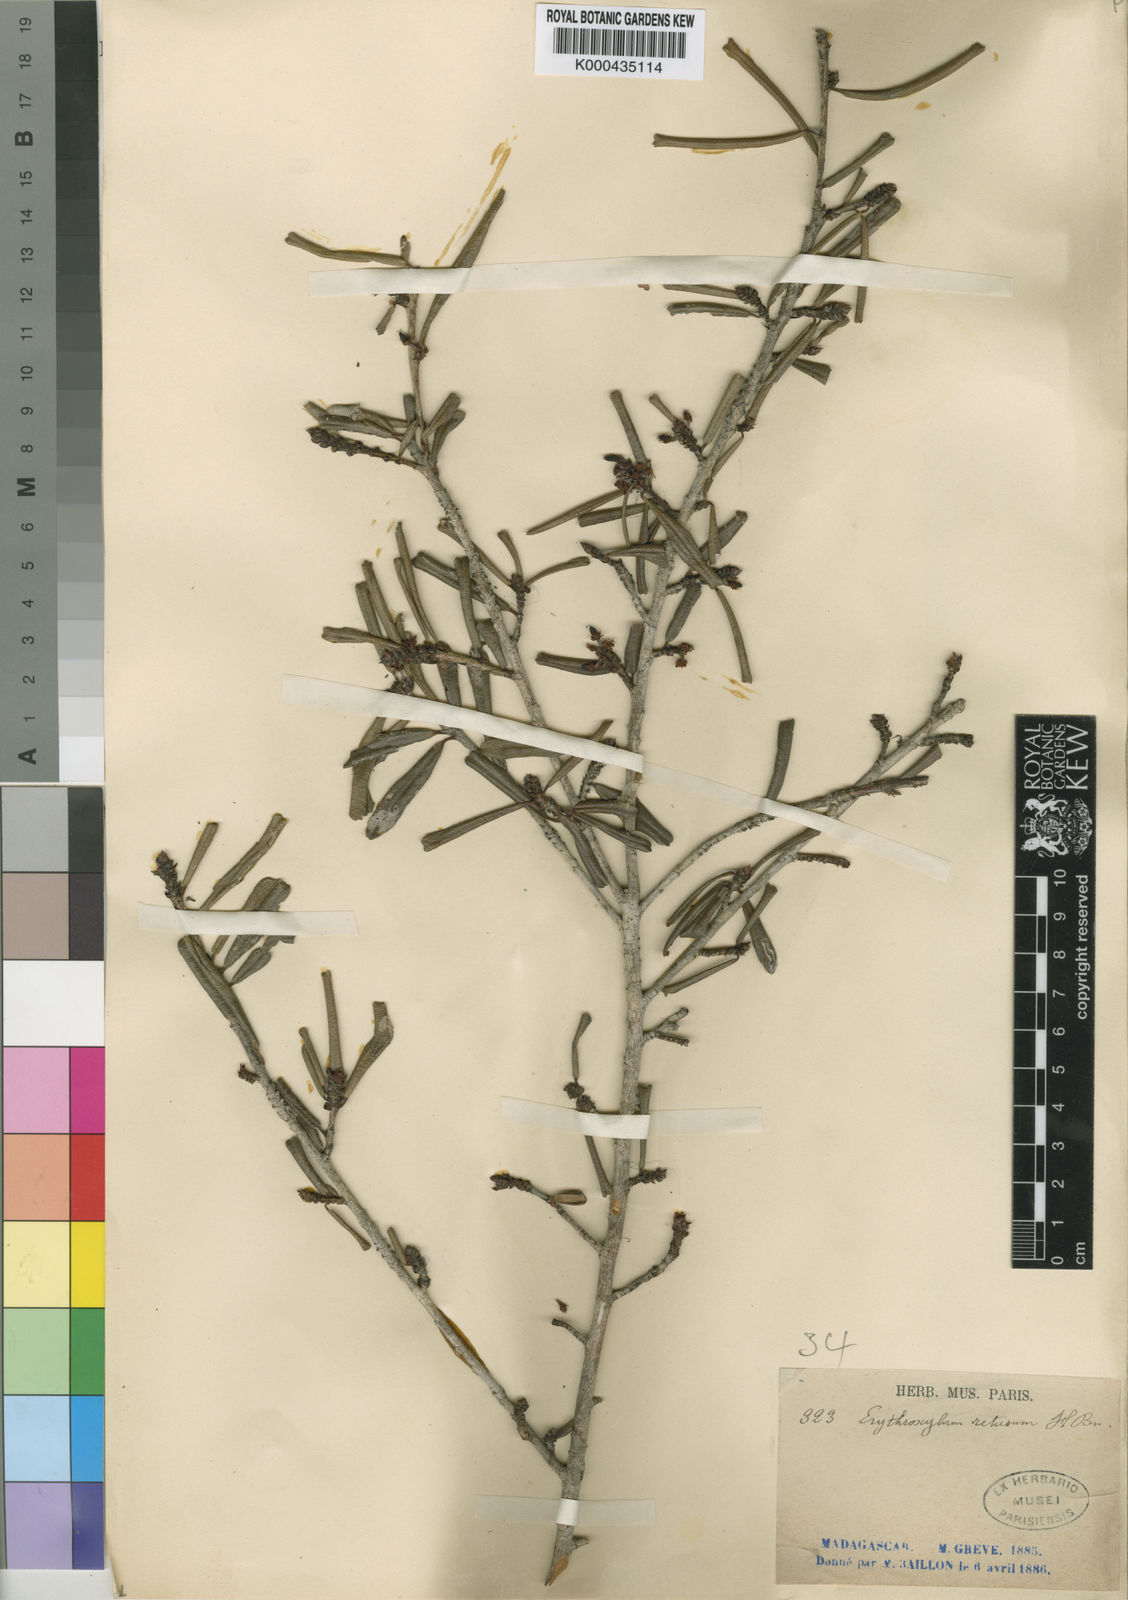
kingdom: Plantae
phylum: Tracheophyta
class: Magnoliopsida
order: Malpighiales
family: Erythroxylaceae
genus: Erythroxylum
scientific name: Erythroxylum
